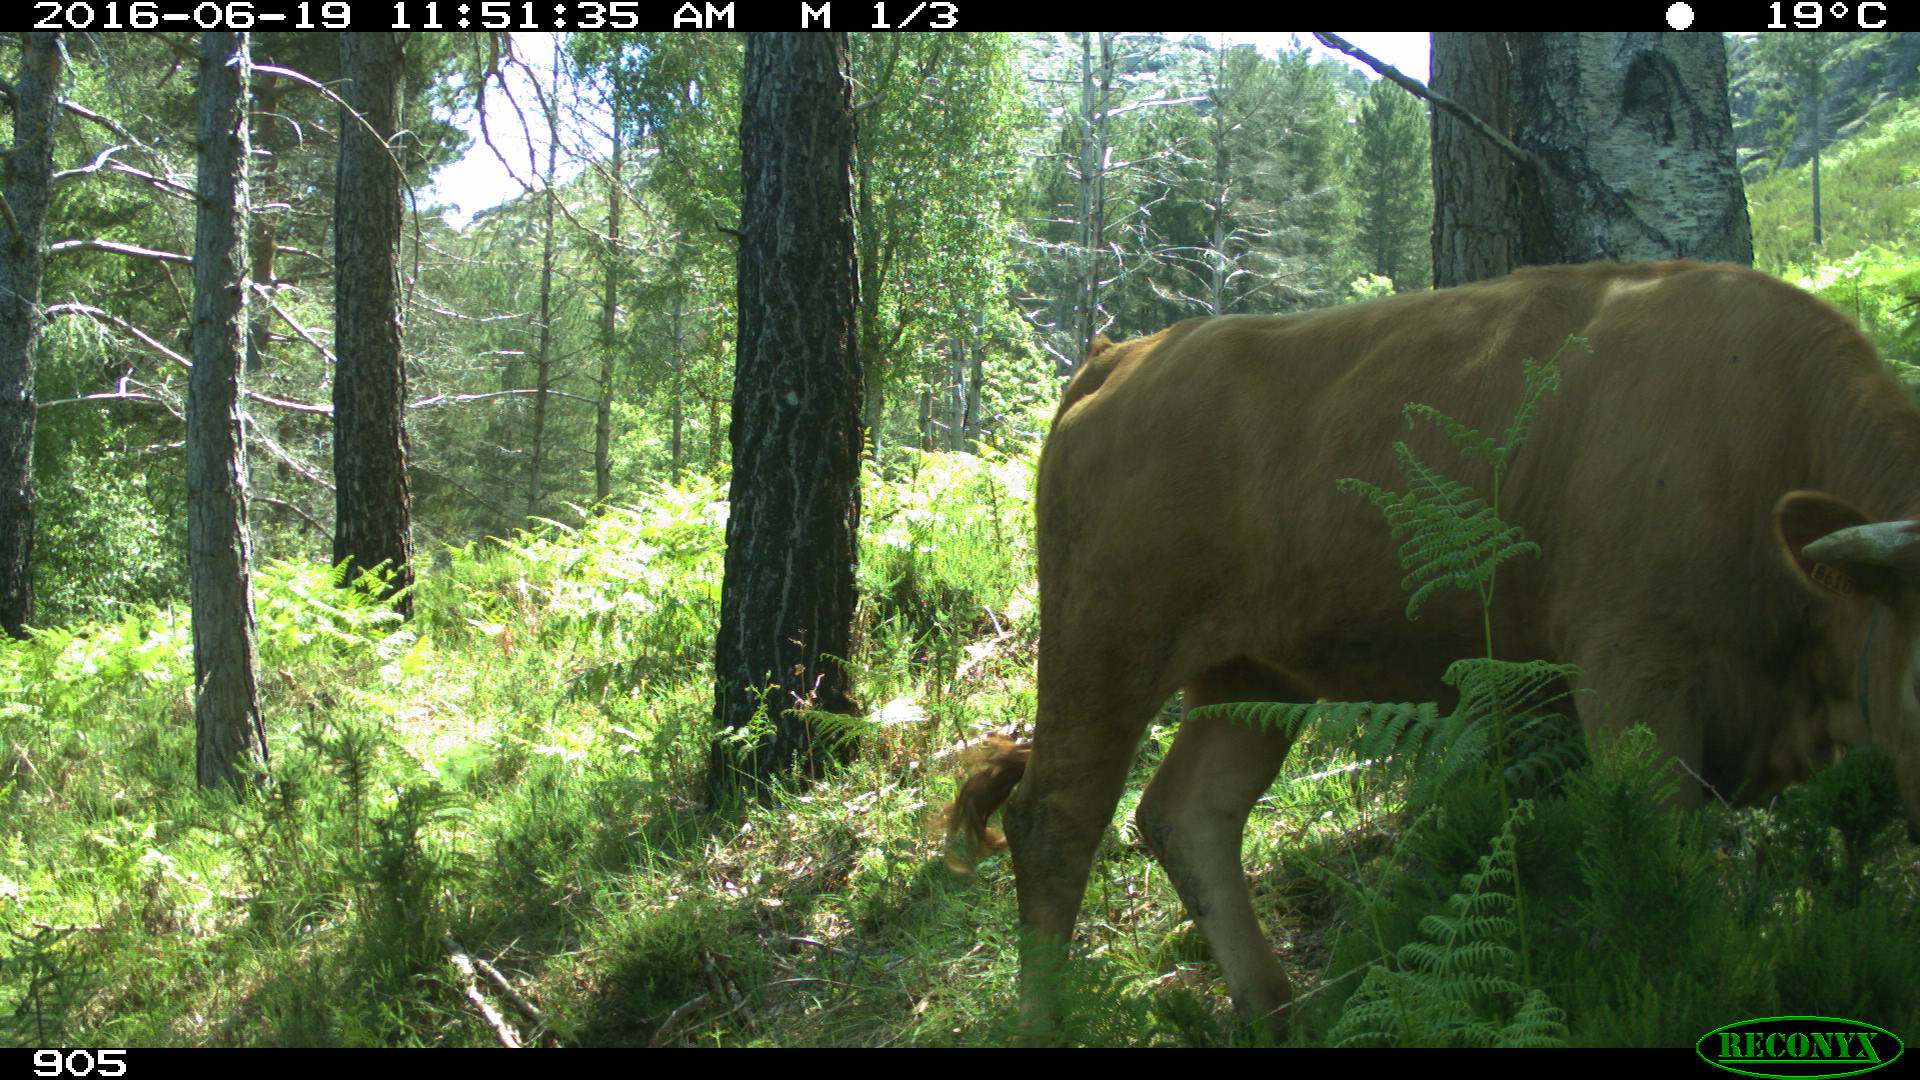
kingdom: Animalia
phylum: Chordata
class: Mammalia
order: Artiodactyla
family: Bovidae
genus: Bos
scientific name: Bos taurus
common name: Domesticated cattle
